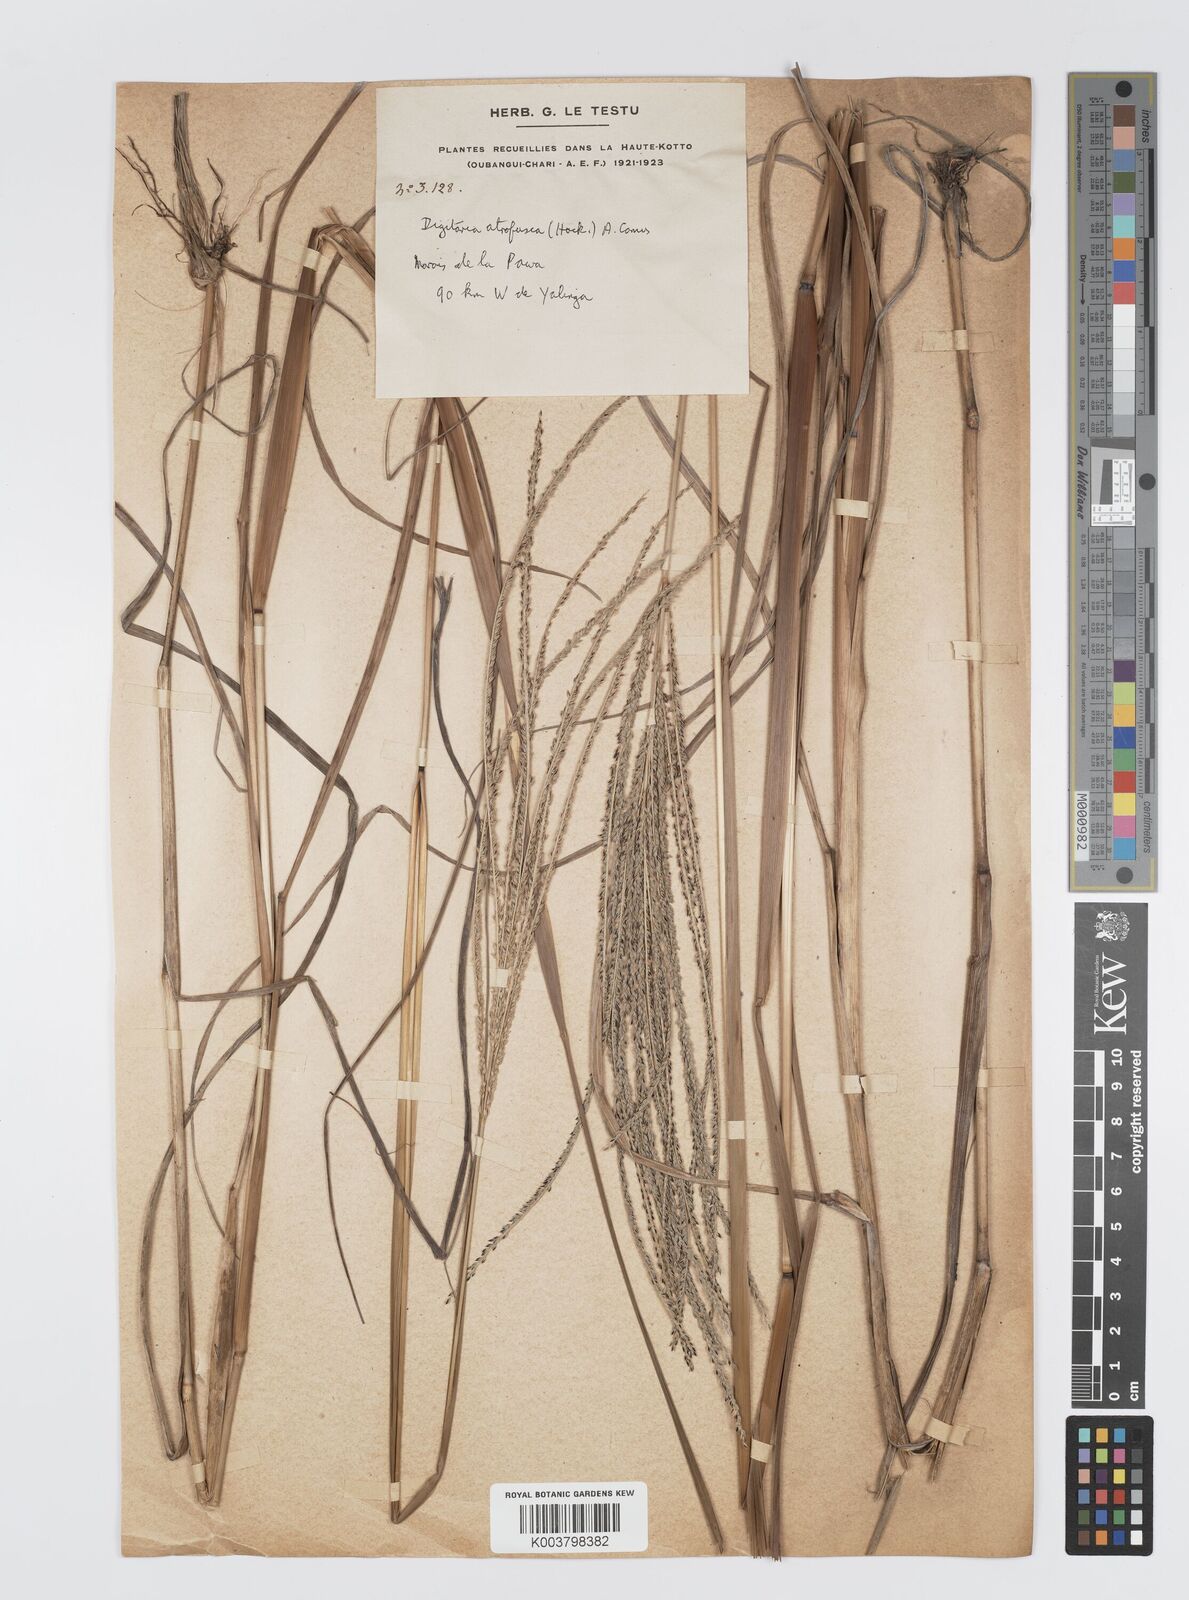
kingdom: Plantae
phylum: Tracheophyta
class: Liliopsida
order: Poales
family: Poaceae
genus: Digitaria
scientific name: Digitaria atrofusca
